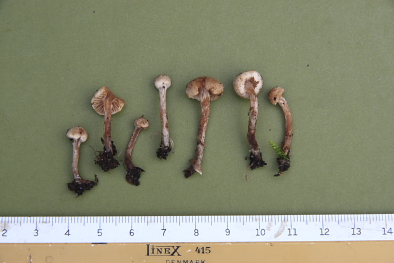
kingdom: Fungi
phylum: Basidiomycota
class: Agaricomycetes
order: Agaricales
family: Hymenogastraceae
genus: Naucoria
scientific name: Naucoria luteolofibrillosa
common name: slør-knaphat
